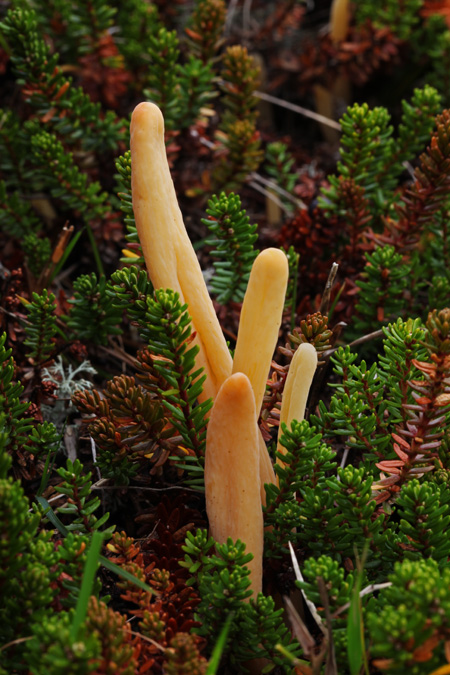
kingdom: Fungi
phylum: Basidiomycota
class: Agaricomycetes
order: Agaricales
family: Clavariaceae
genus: Clavaria
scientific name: Clavaria argillacea
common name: lerfarvet køllesvamp
